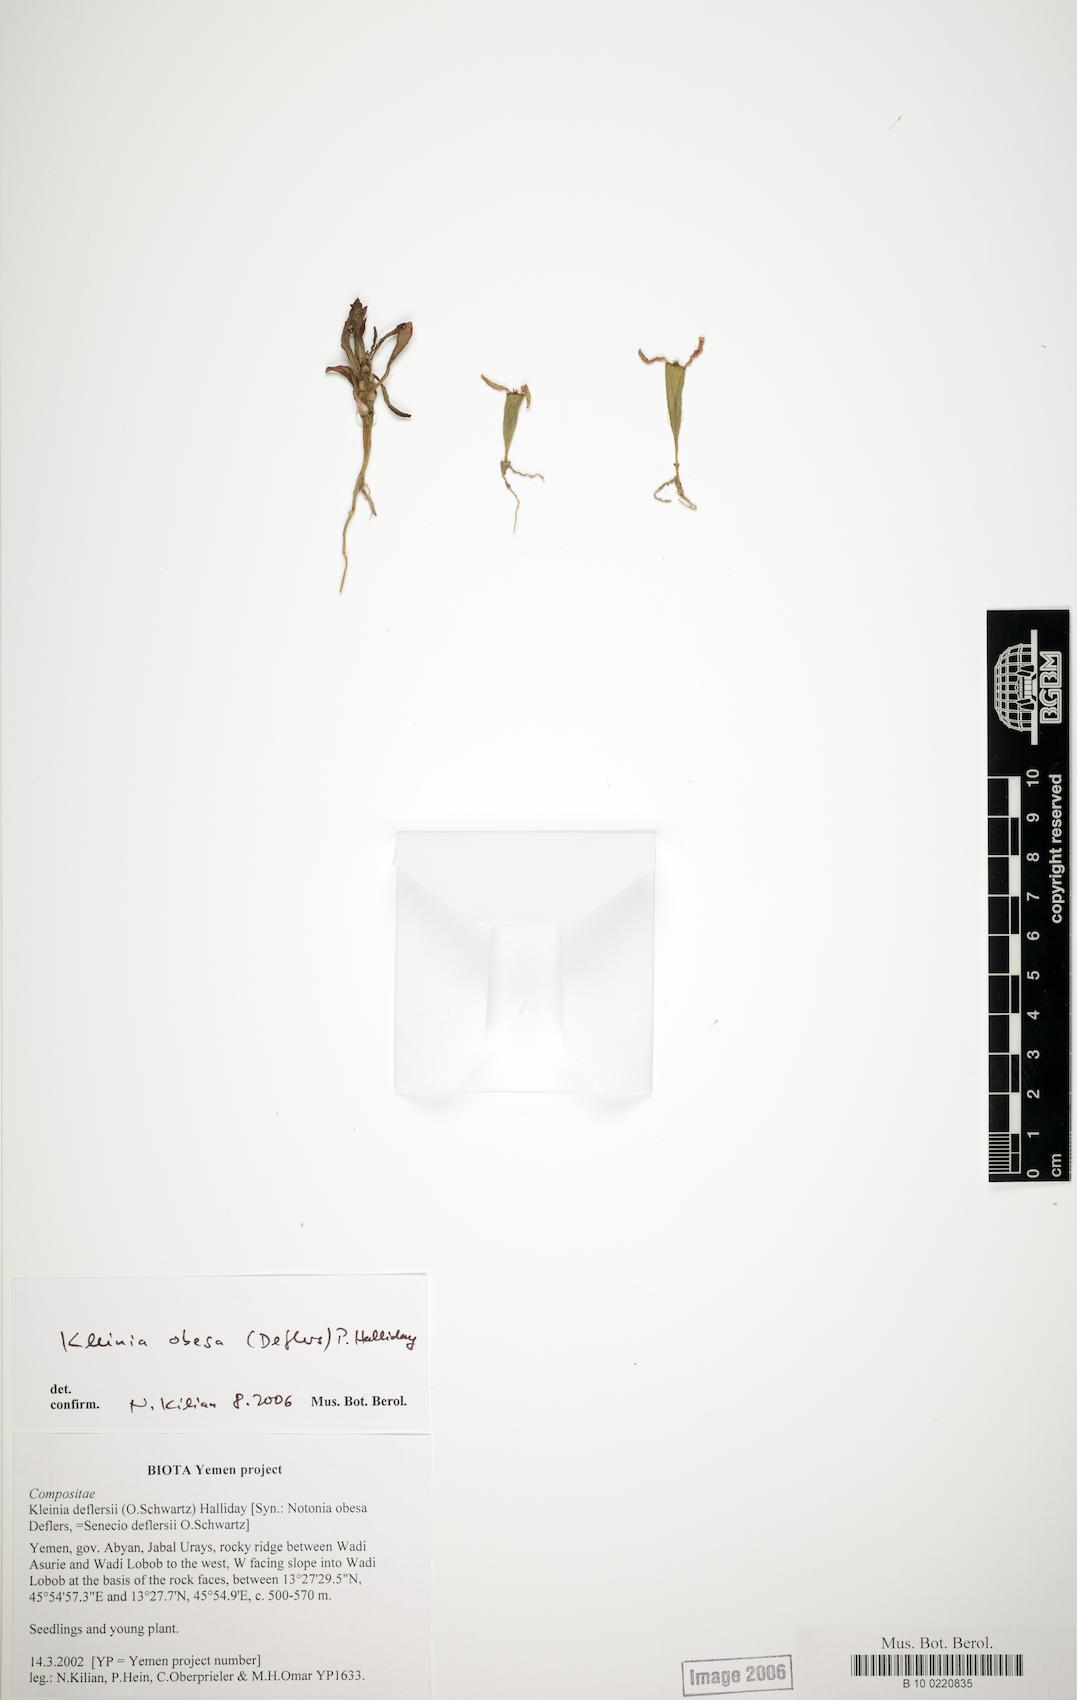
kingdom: Plantae
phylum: Tracheophyta
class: Magnoliopsida
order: Asterales
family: Asteraceae
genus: Kleinia
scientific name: Kleinia deflersii
